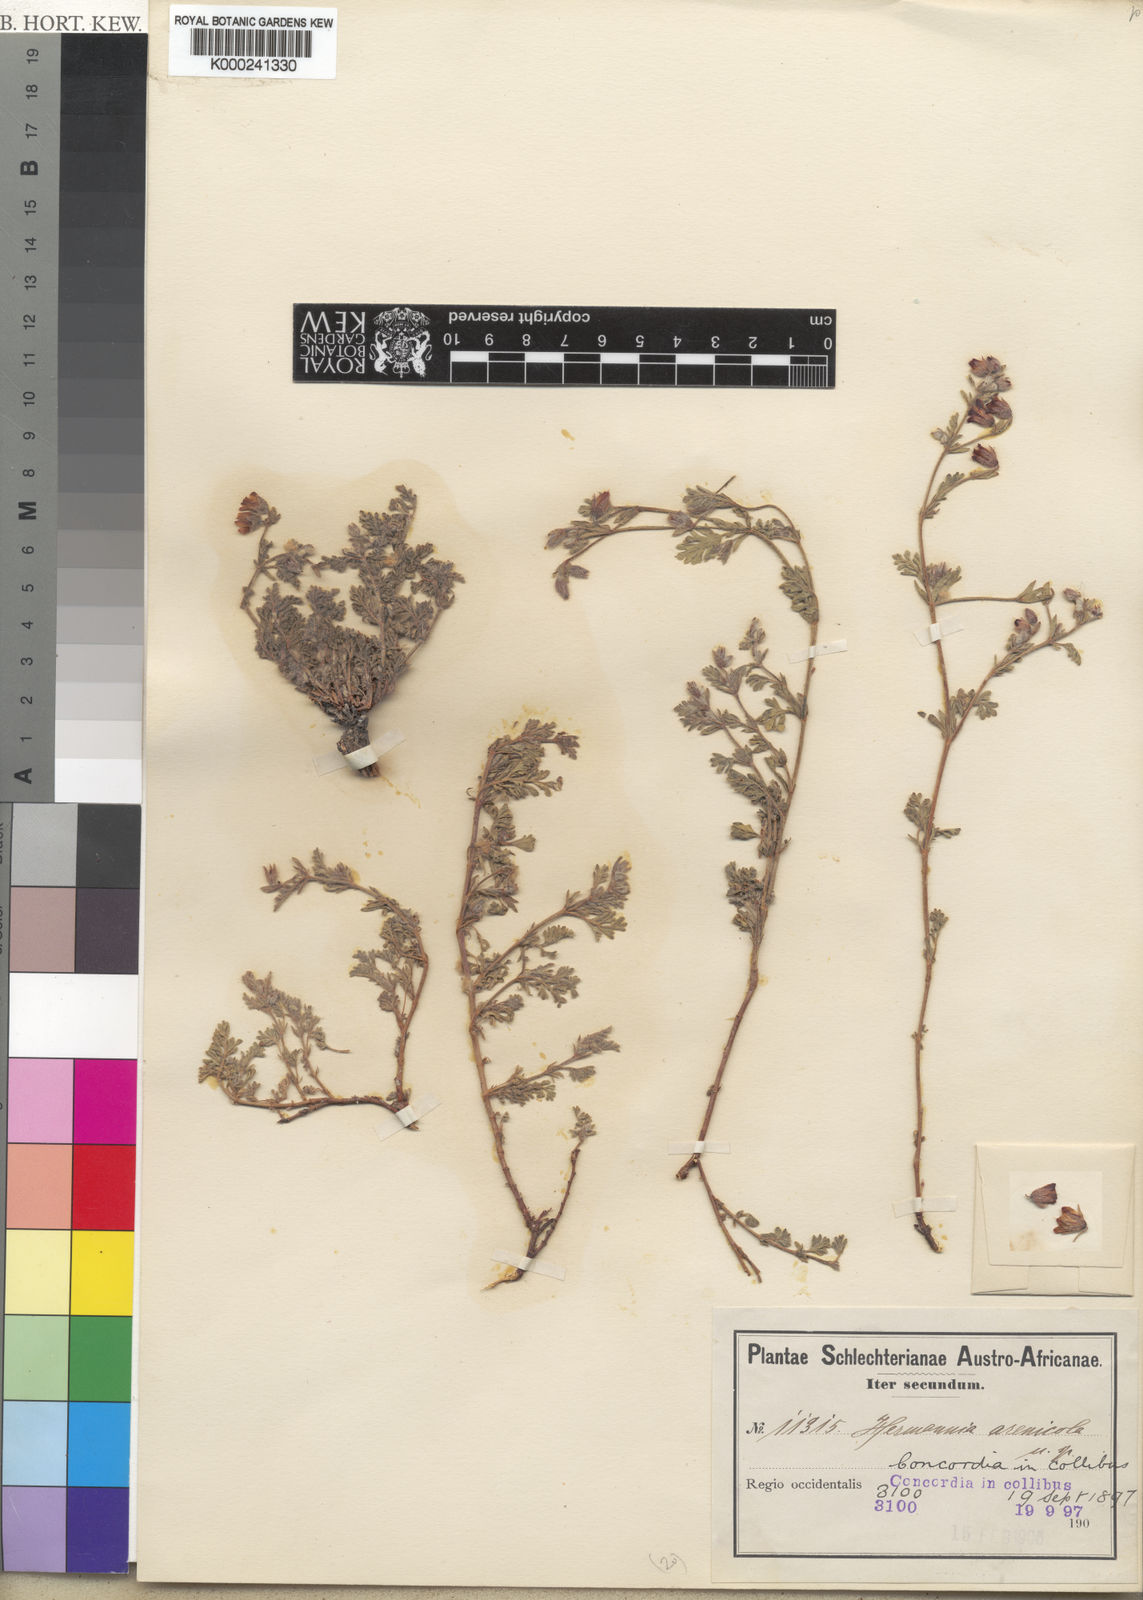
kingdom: Plantae
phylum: Tracheophyta
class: Magnoliopsida
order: Malvales
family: Malvaceae
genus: Hermannia
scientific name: Hermannia arenicola
